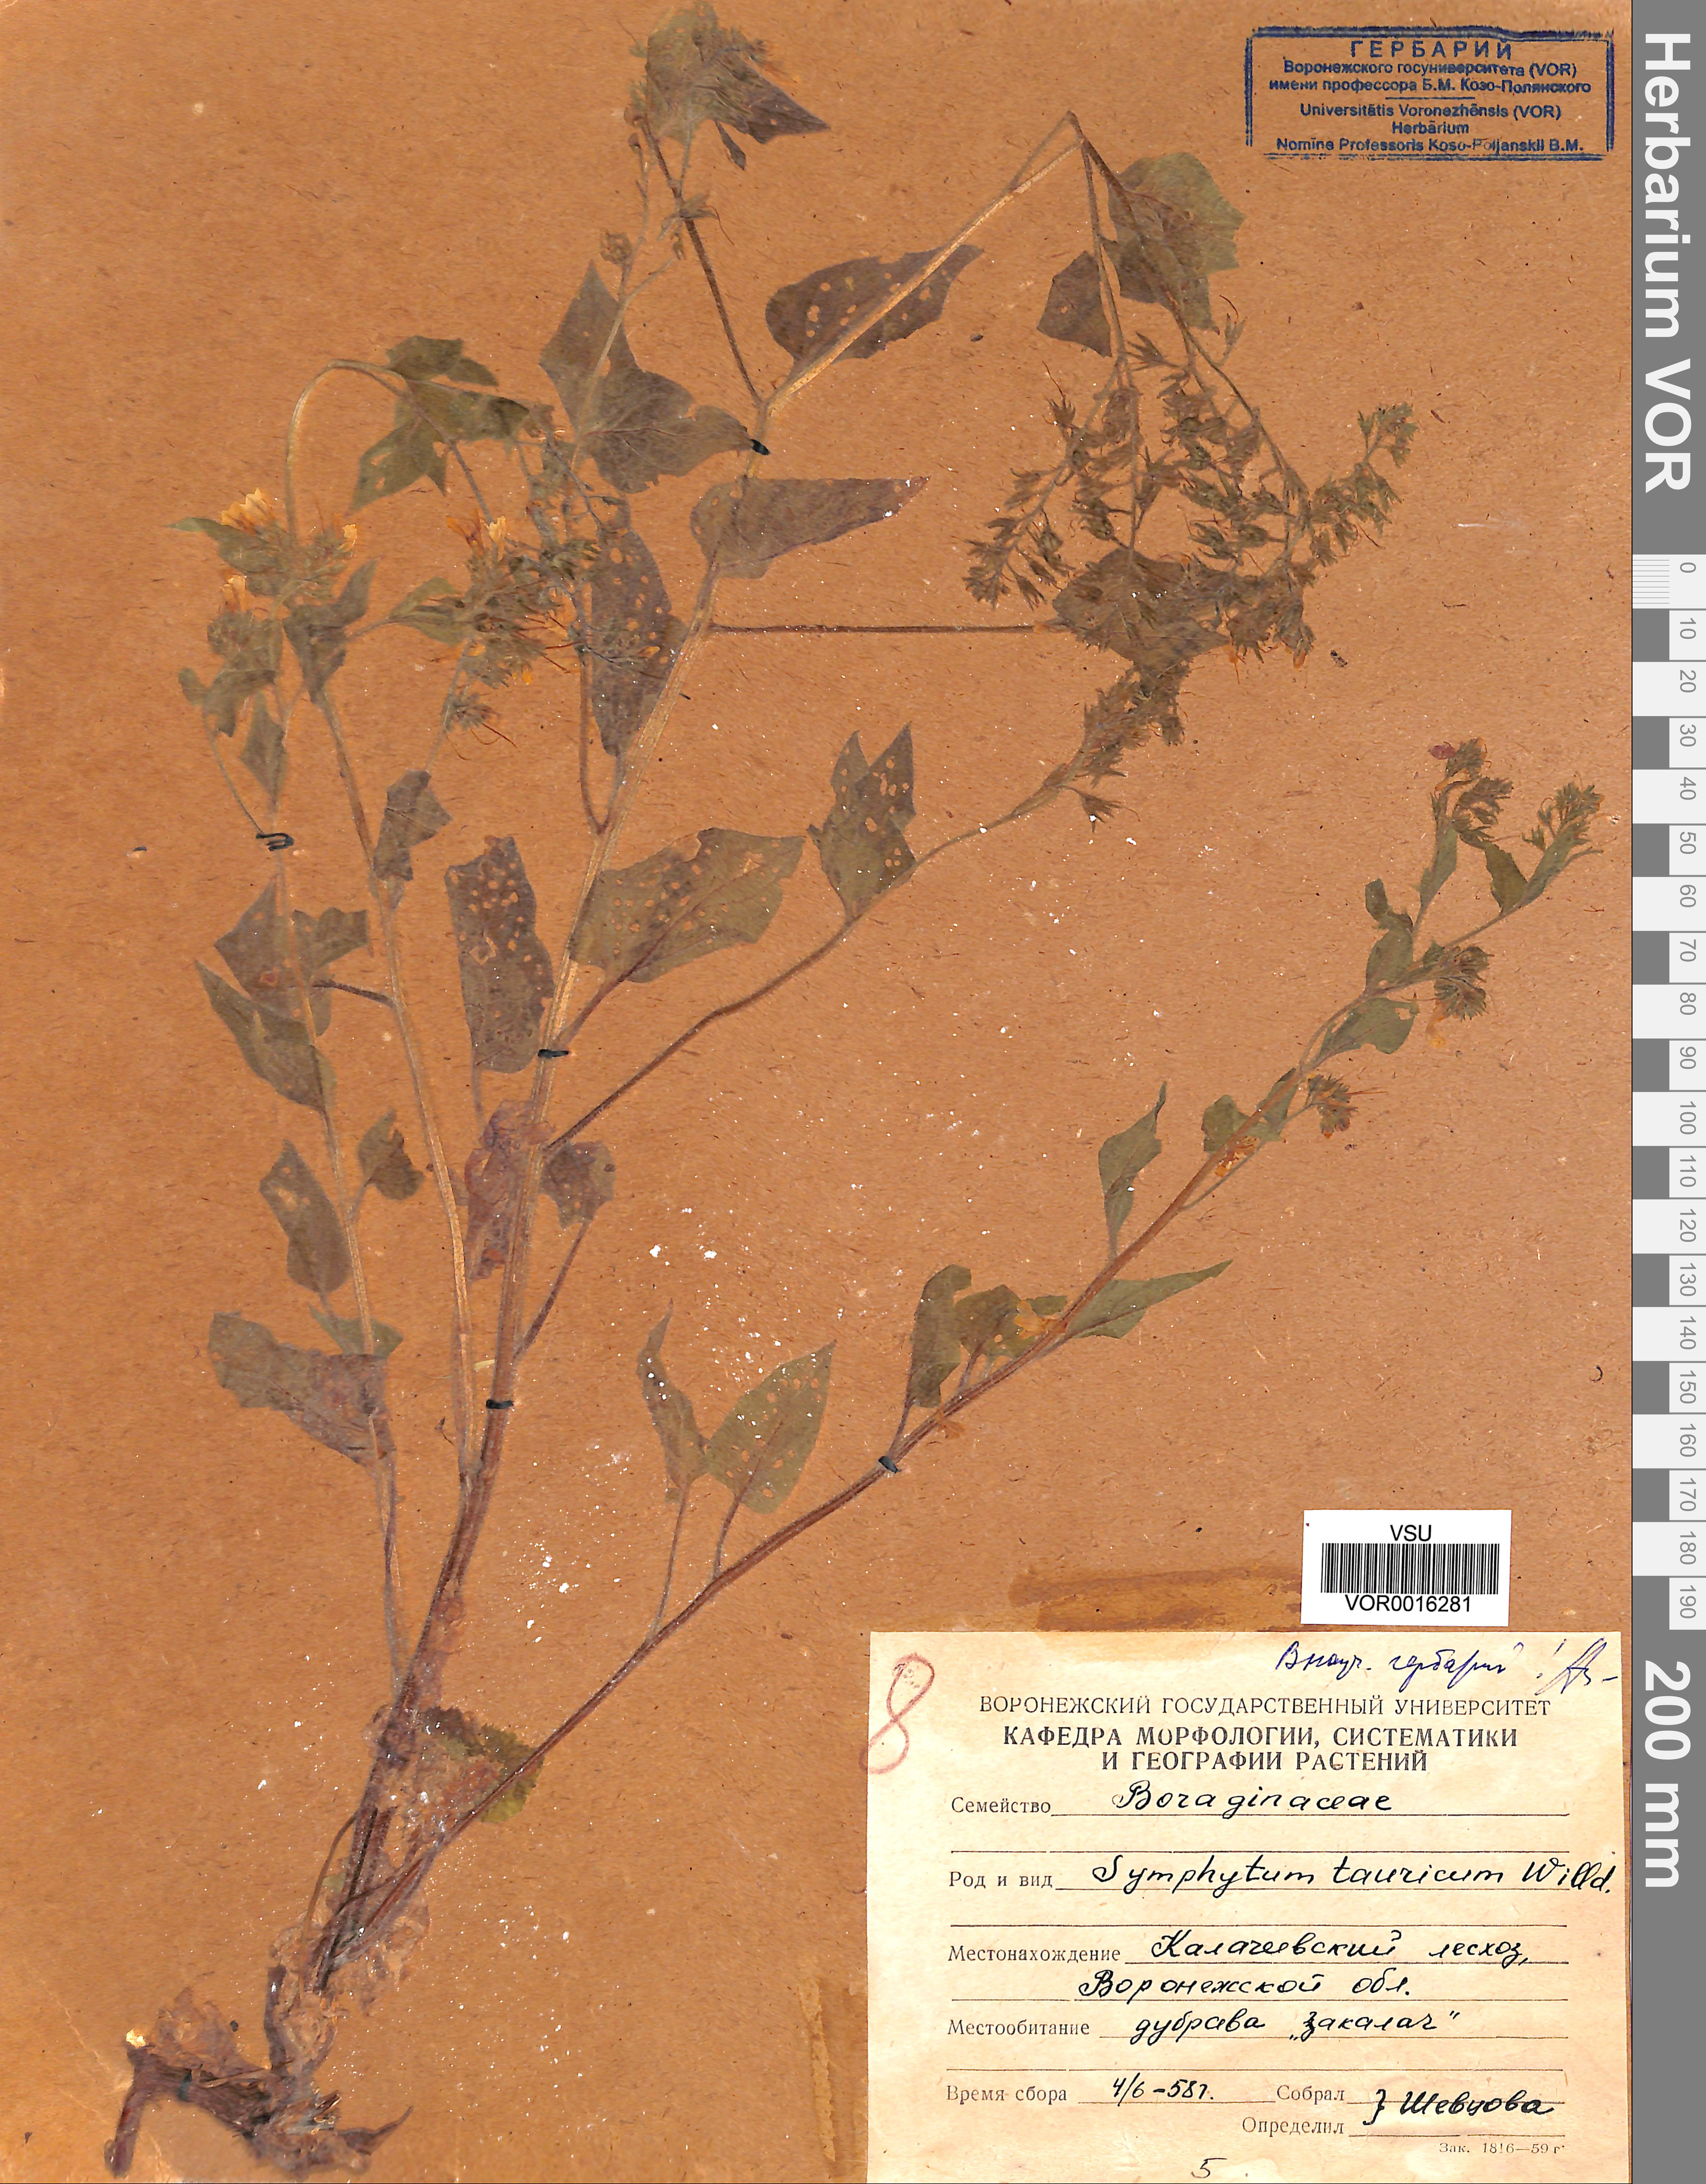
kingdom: Plantae
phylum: Tracheophyta
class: Magnoliopsida
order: Boraginales
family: Boraginaceae
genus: Symphytum
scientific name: Symphytum tauricum
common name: Crimean comfrey
